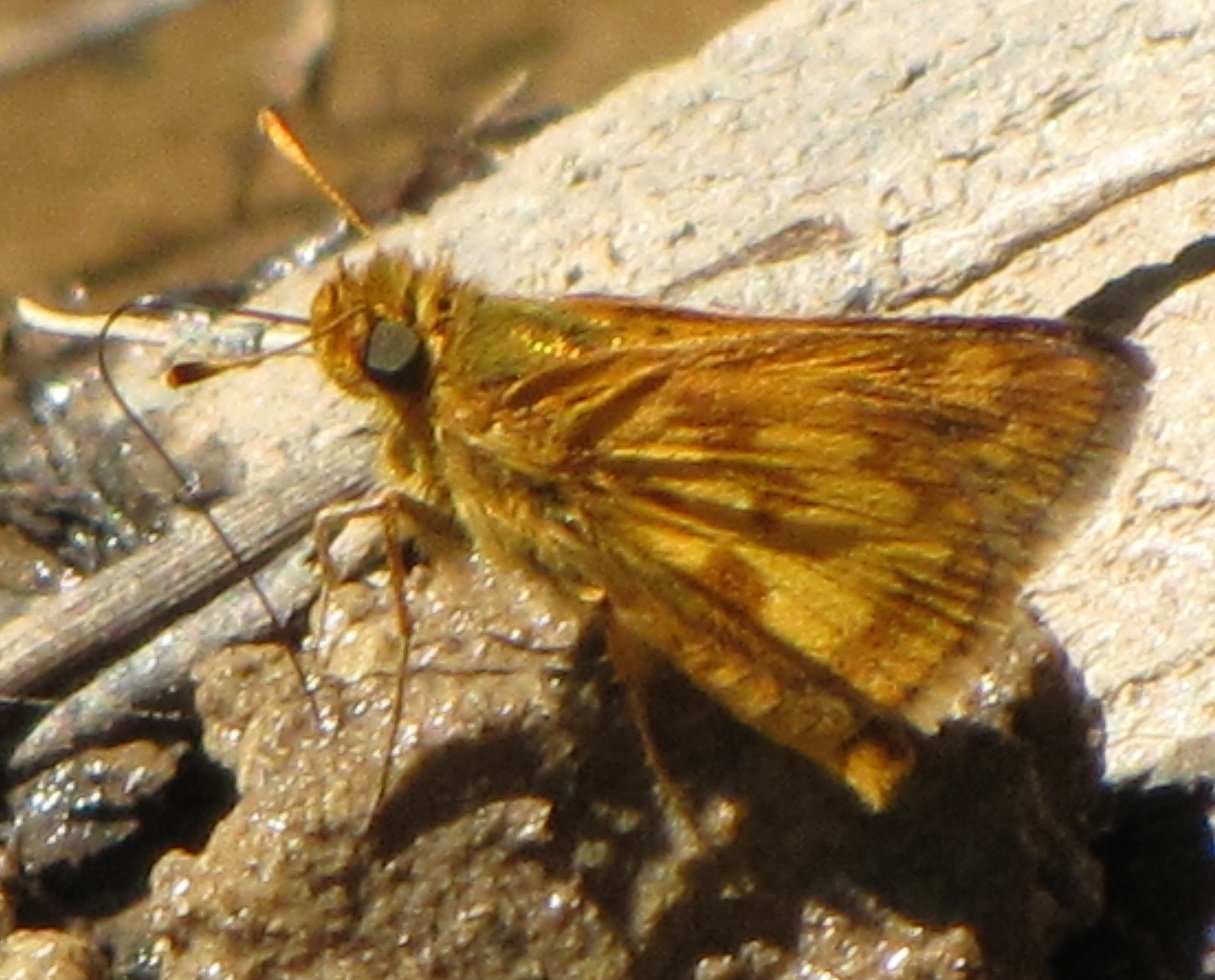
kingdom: Animalia
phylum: Arthropoda
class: Insecta
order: Lepidoptera
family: Hesperiidae
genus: Polites
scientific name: Polites coras
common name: Peck's Skipper
